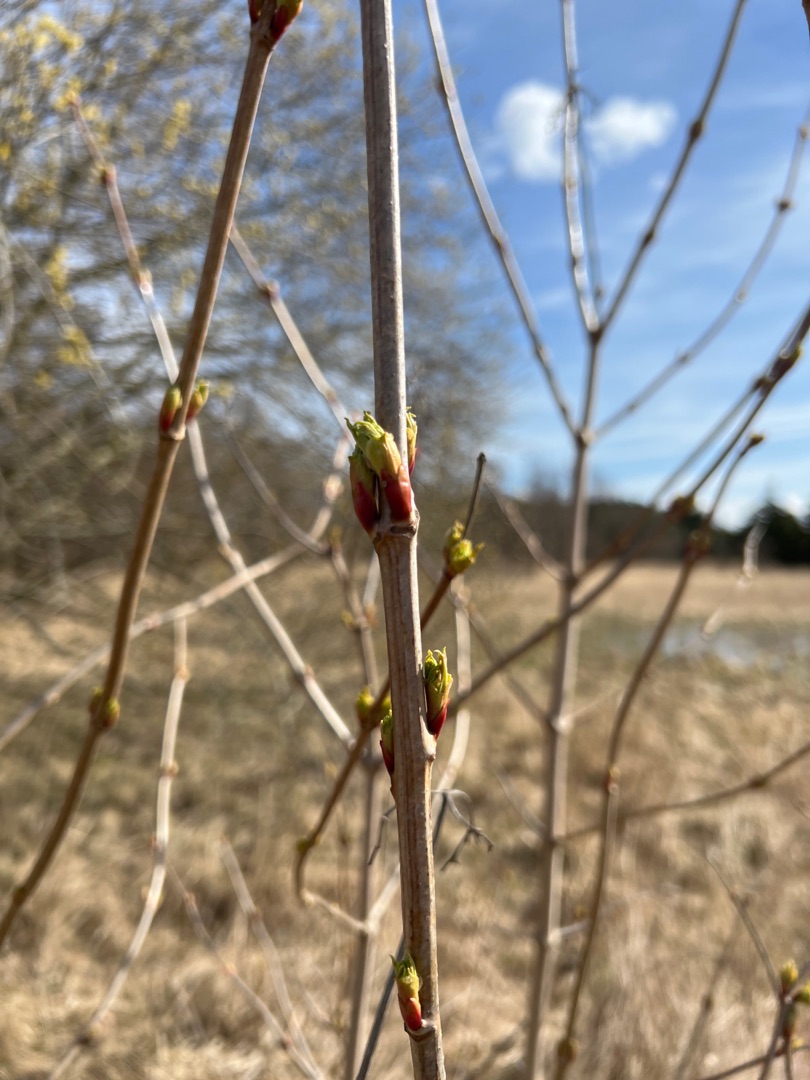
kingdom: Plantae
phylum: Tracheophyta
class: Magnoliopsida
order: Dipsacales
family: Viburnaceae
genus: Viburnum
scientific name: Viburnum opulus
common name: Kvalkved
